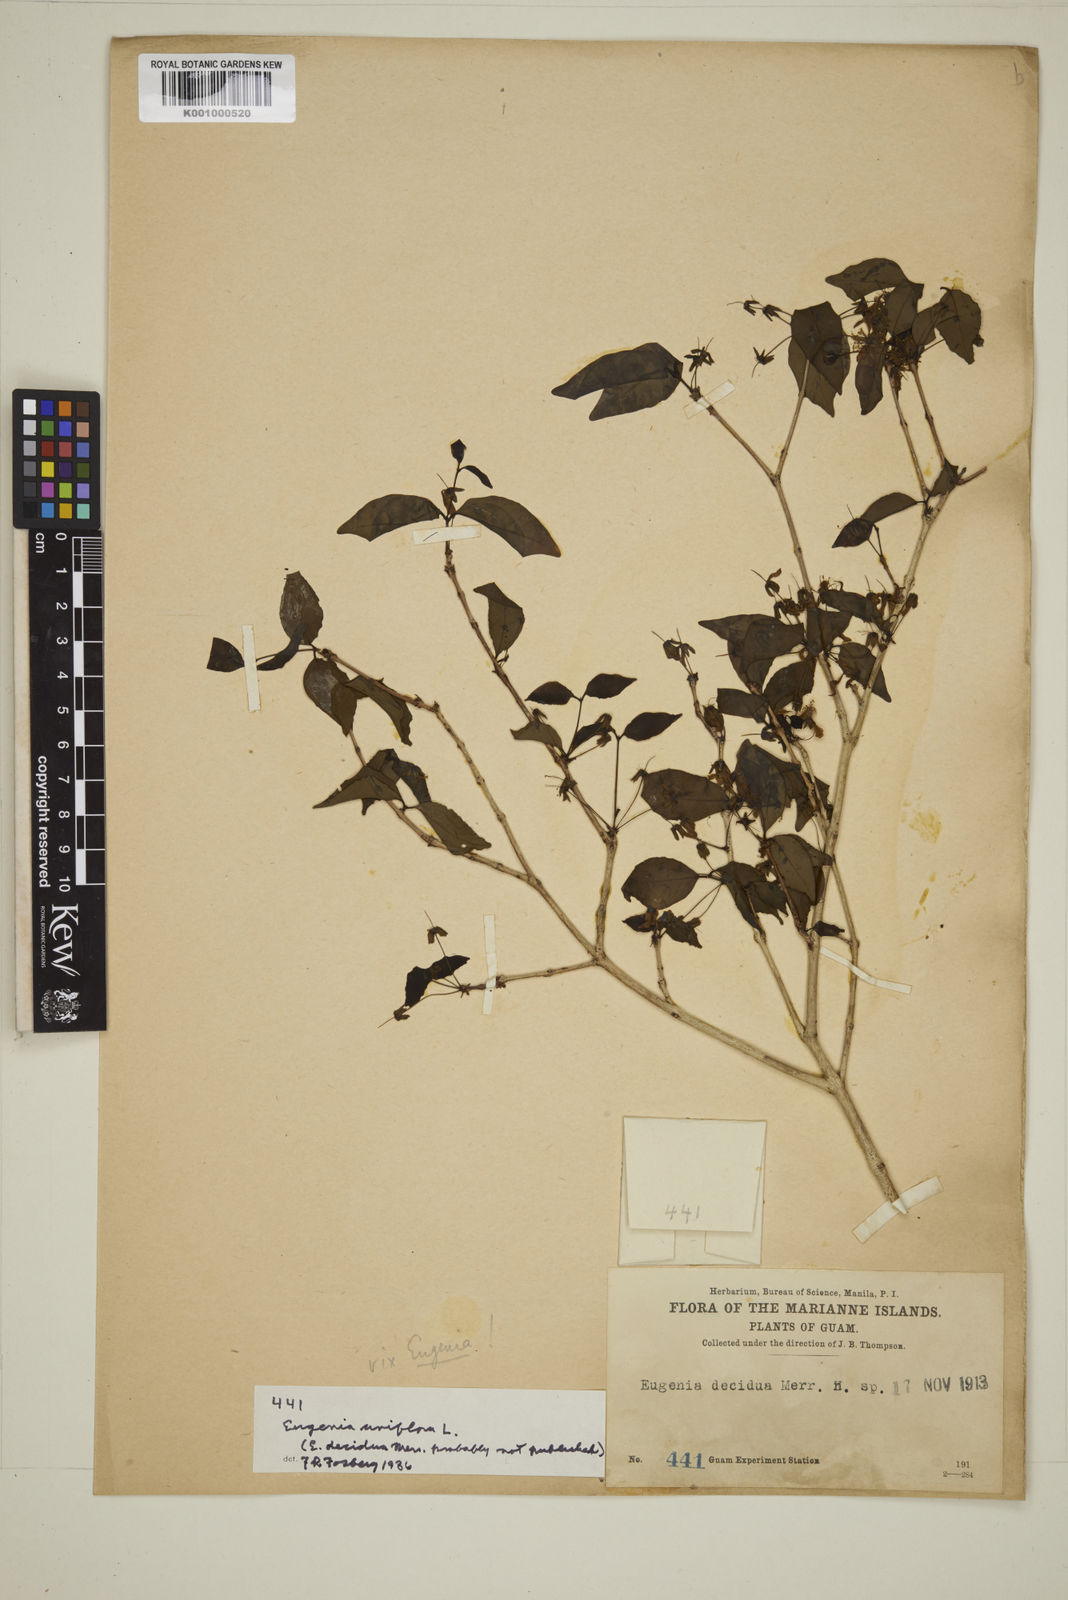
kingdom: Plantae
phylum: Tracheophyta
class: Magnoliopsida
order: Myrtales
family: Myrtaceae
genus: Eugenia
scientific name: Eugenia uniflora
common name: Surinam cherry
